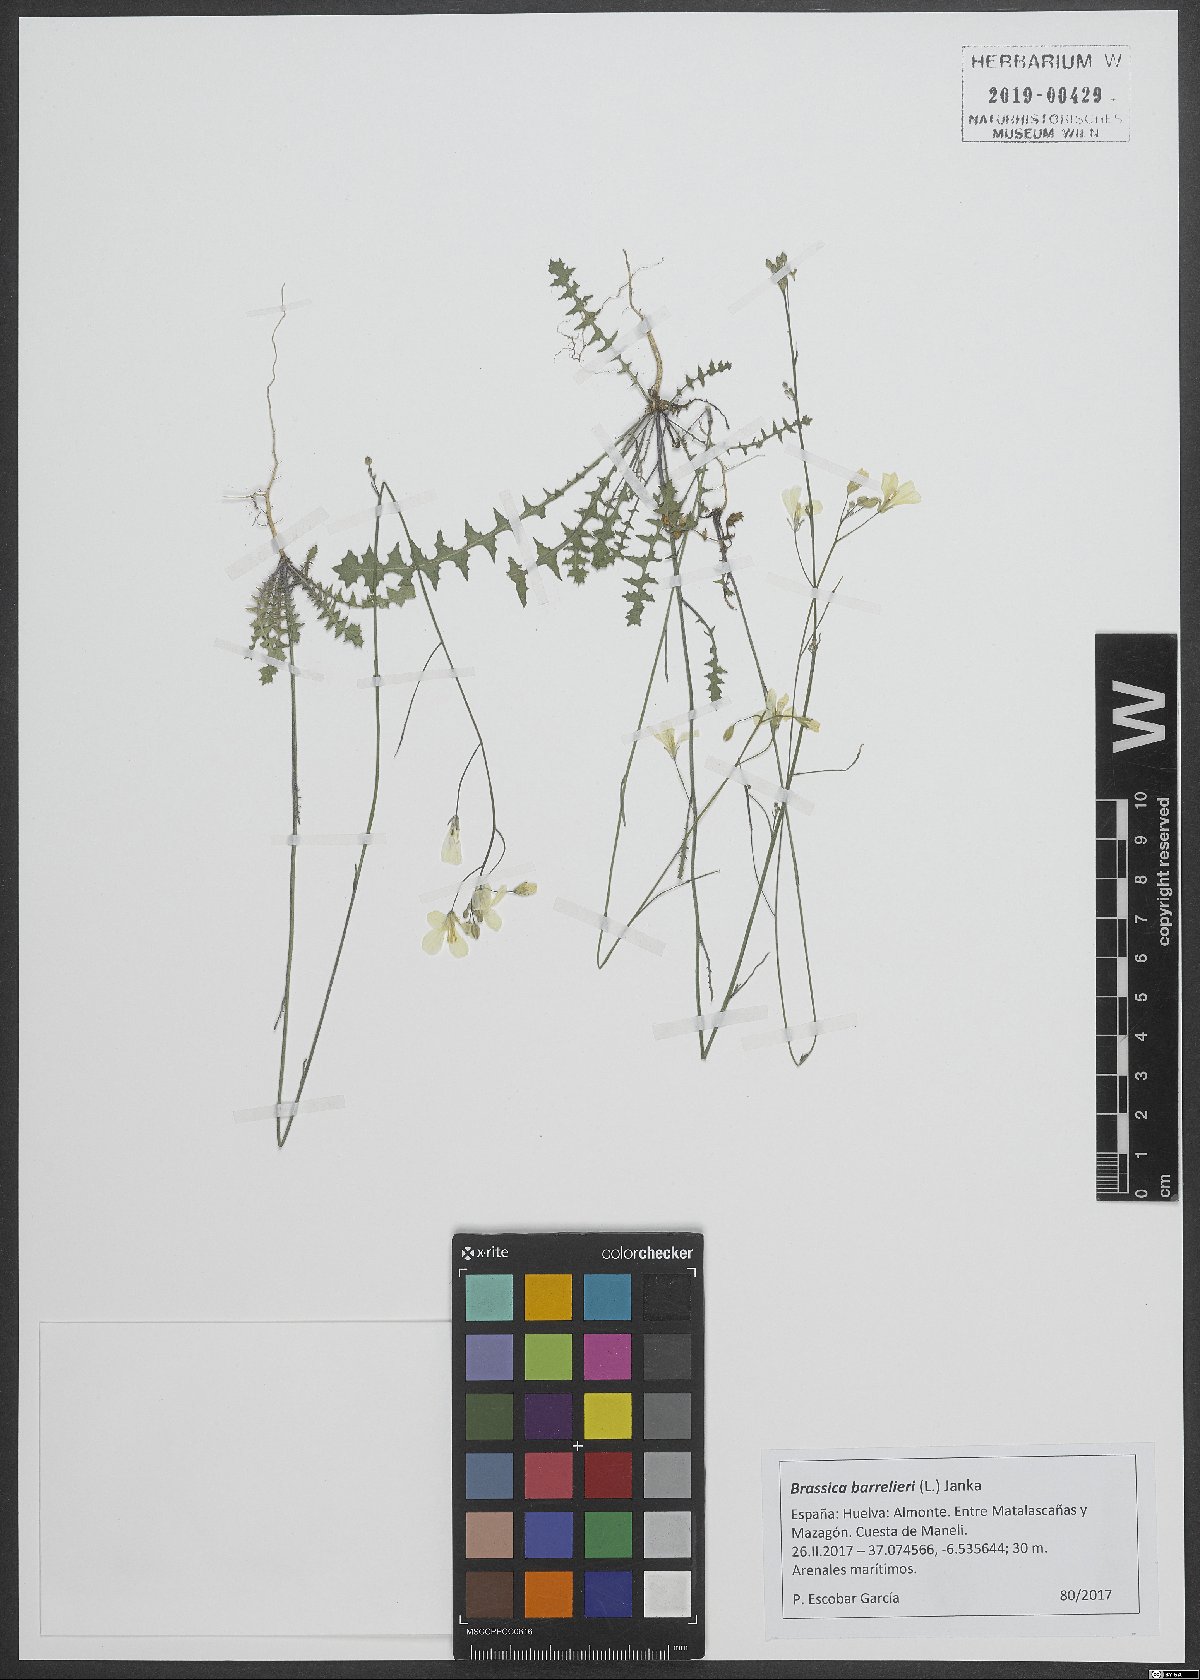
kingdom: Plantae
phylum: Tracheophyta
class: Magnoliopsida
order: Brassicales
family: Brassicaceae
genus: Brassica
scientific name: Brassica barrelieri
